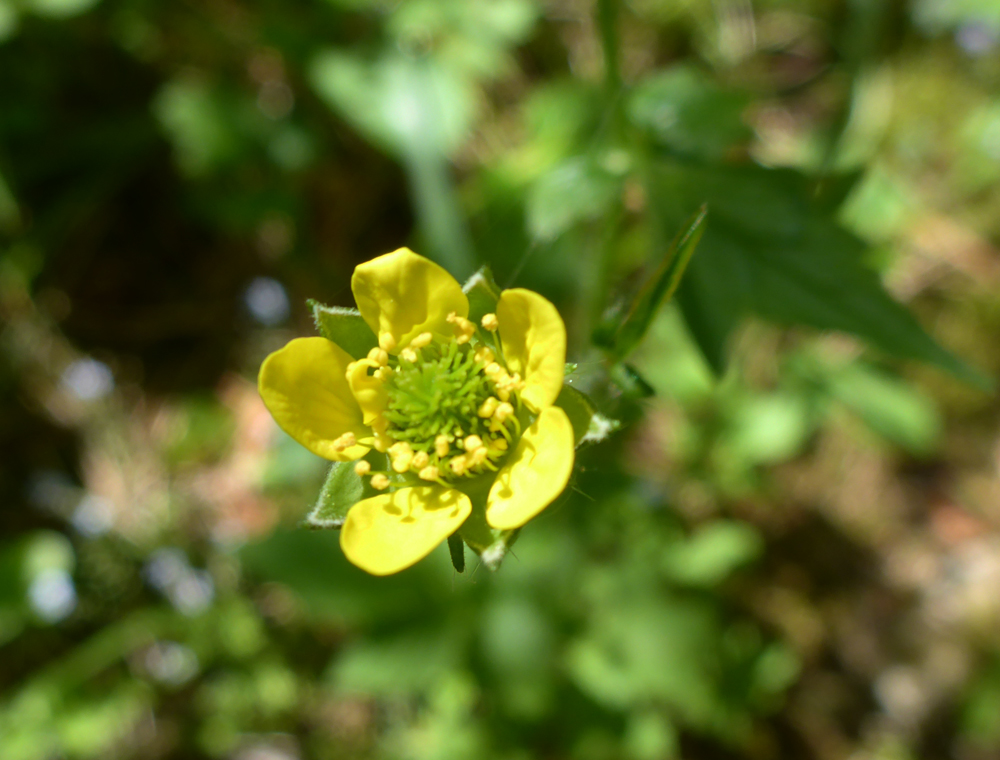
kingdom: Plantae
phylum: Tracheophyta
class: Magnoliopsida
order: Rosales
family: Rosaceae
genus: Geum
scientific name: Geum urbanum
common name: Wood avens
